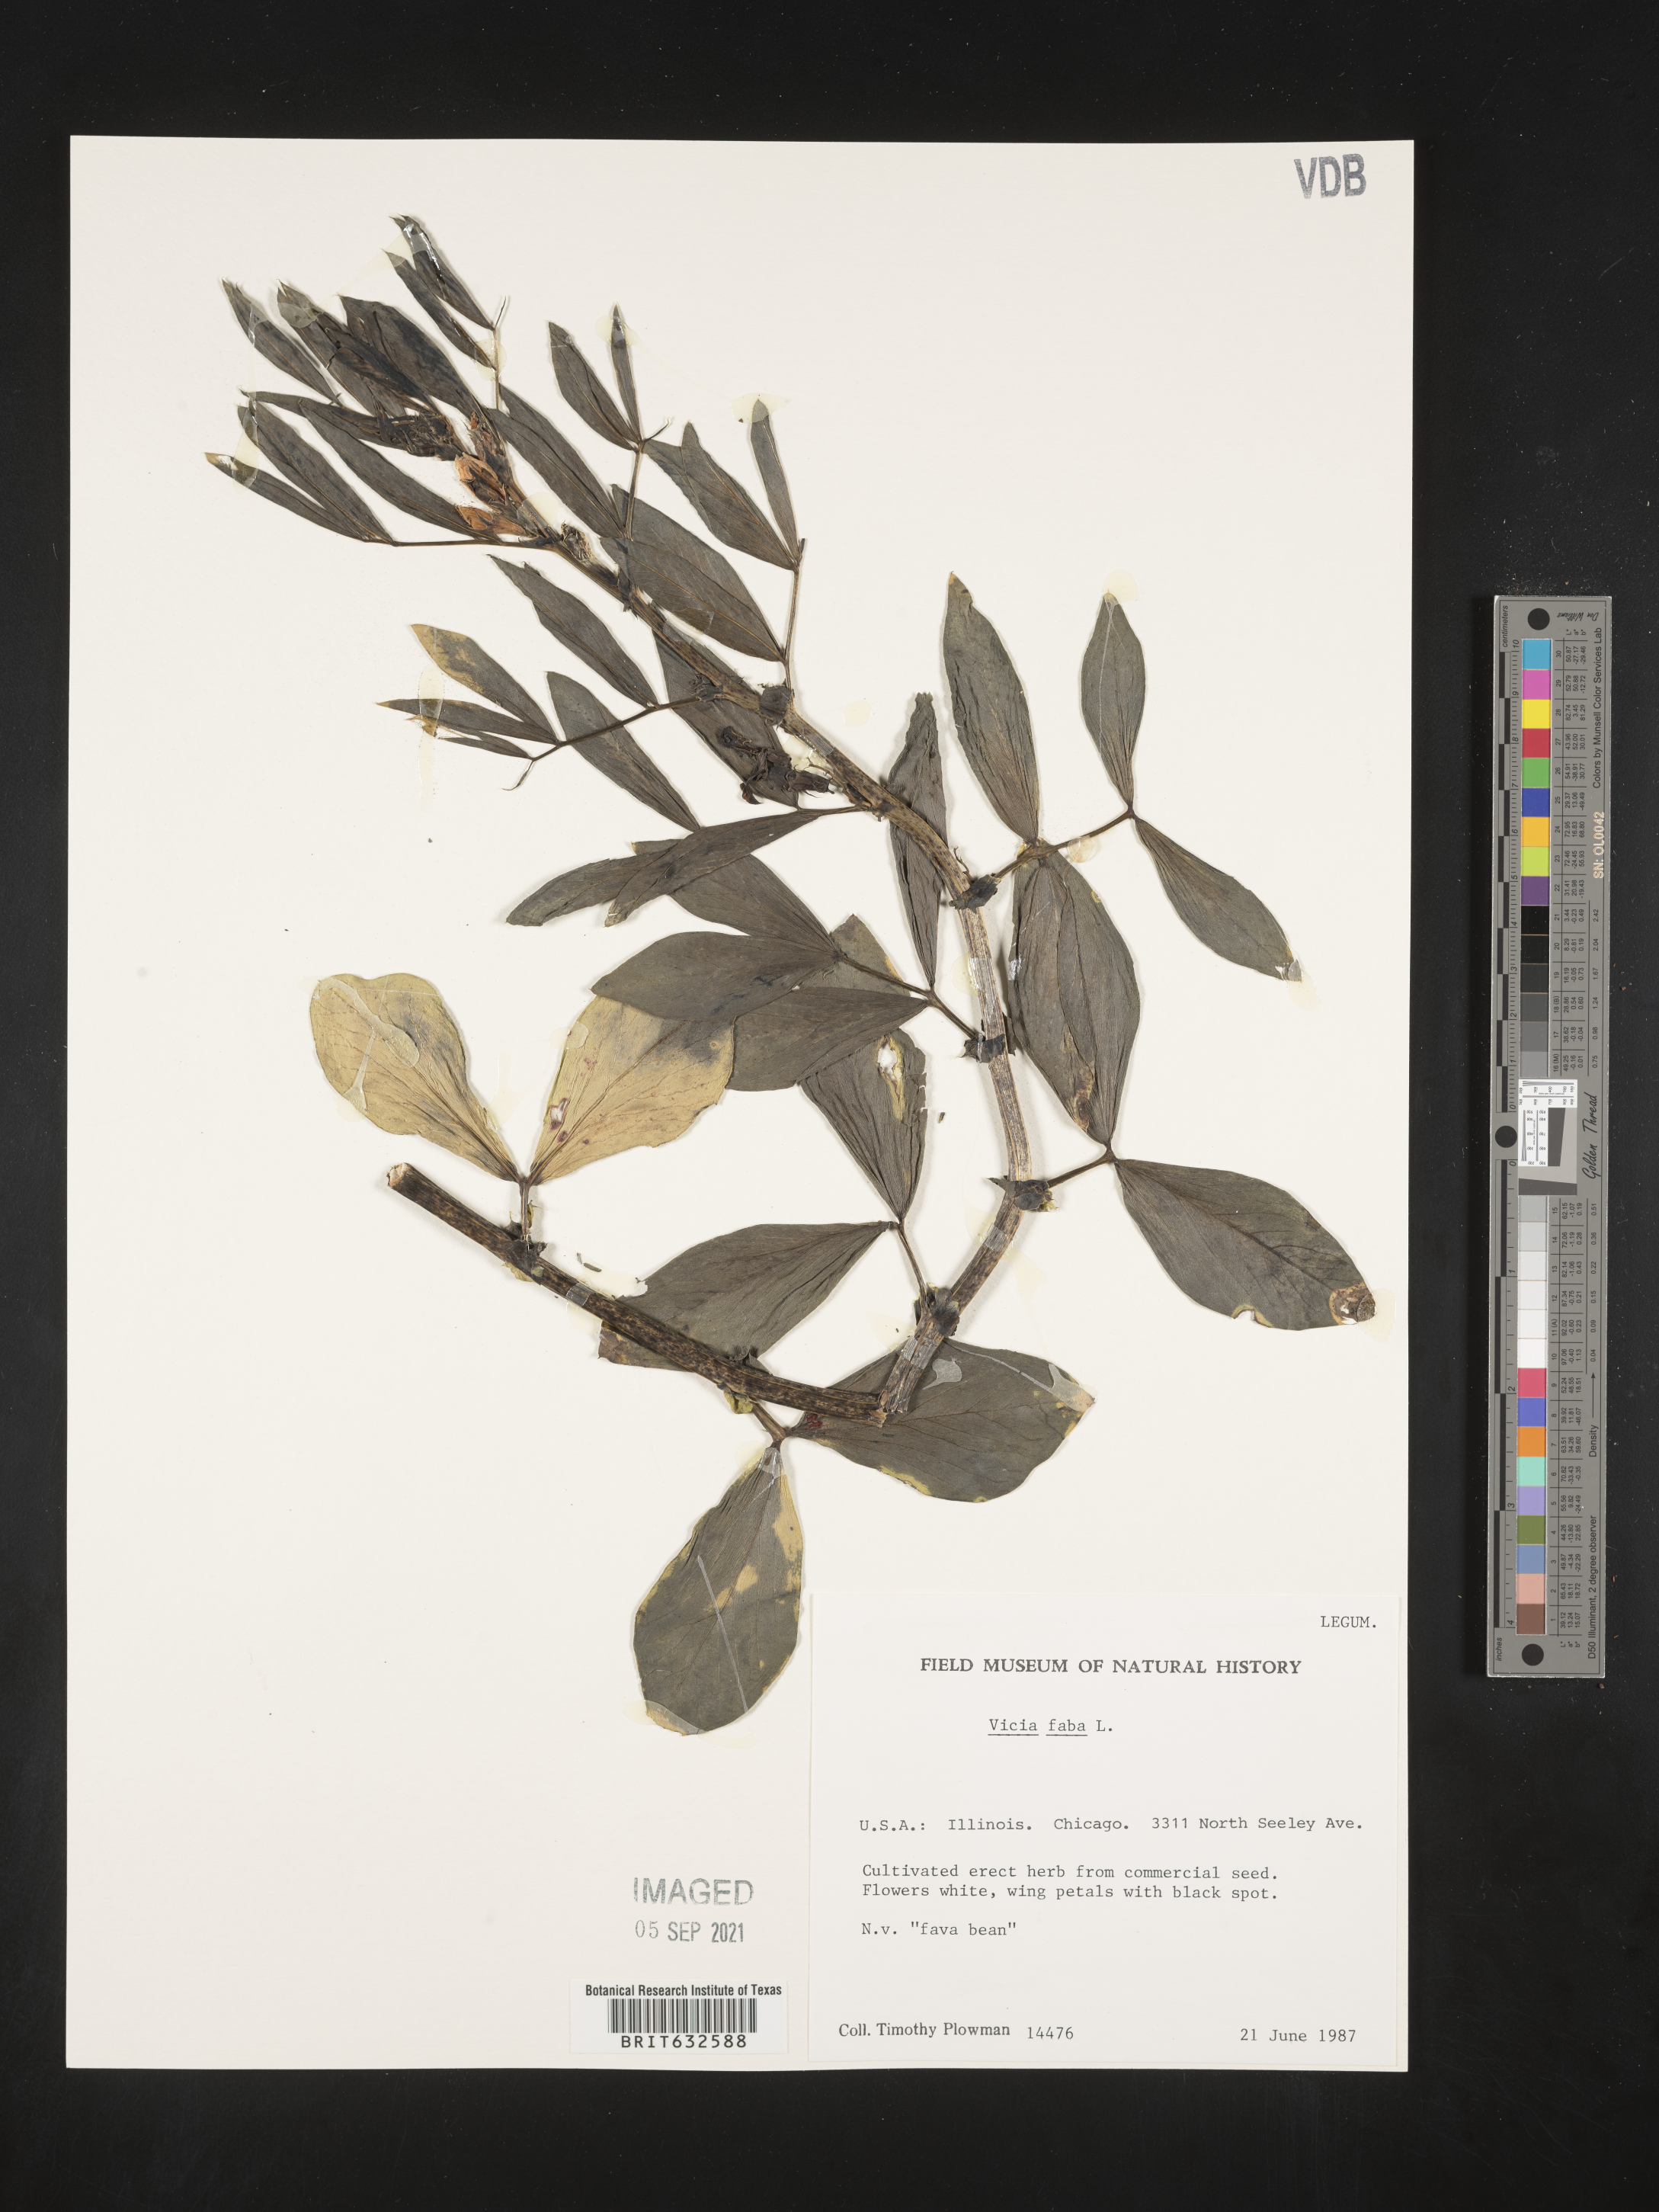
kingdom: Plantae
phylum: Tracheophyta
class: Magnoliopsida
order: Fabales
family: Fabaceae
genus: Vicia
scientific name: Vicia
